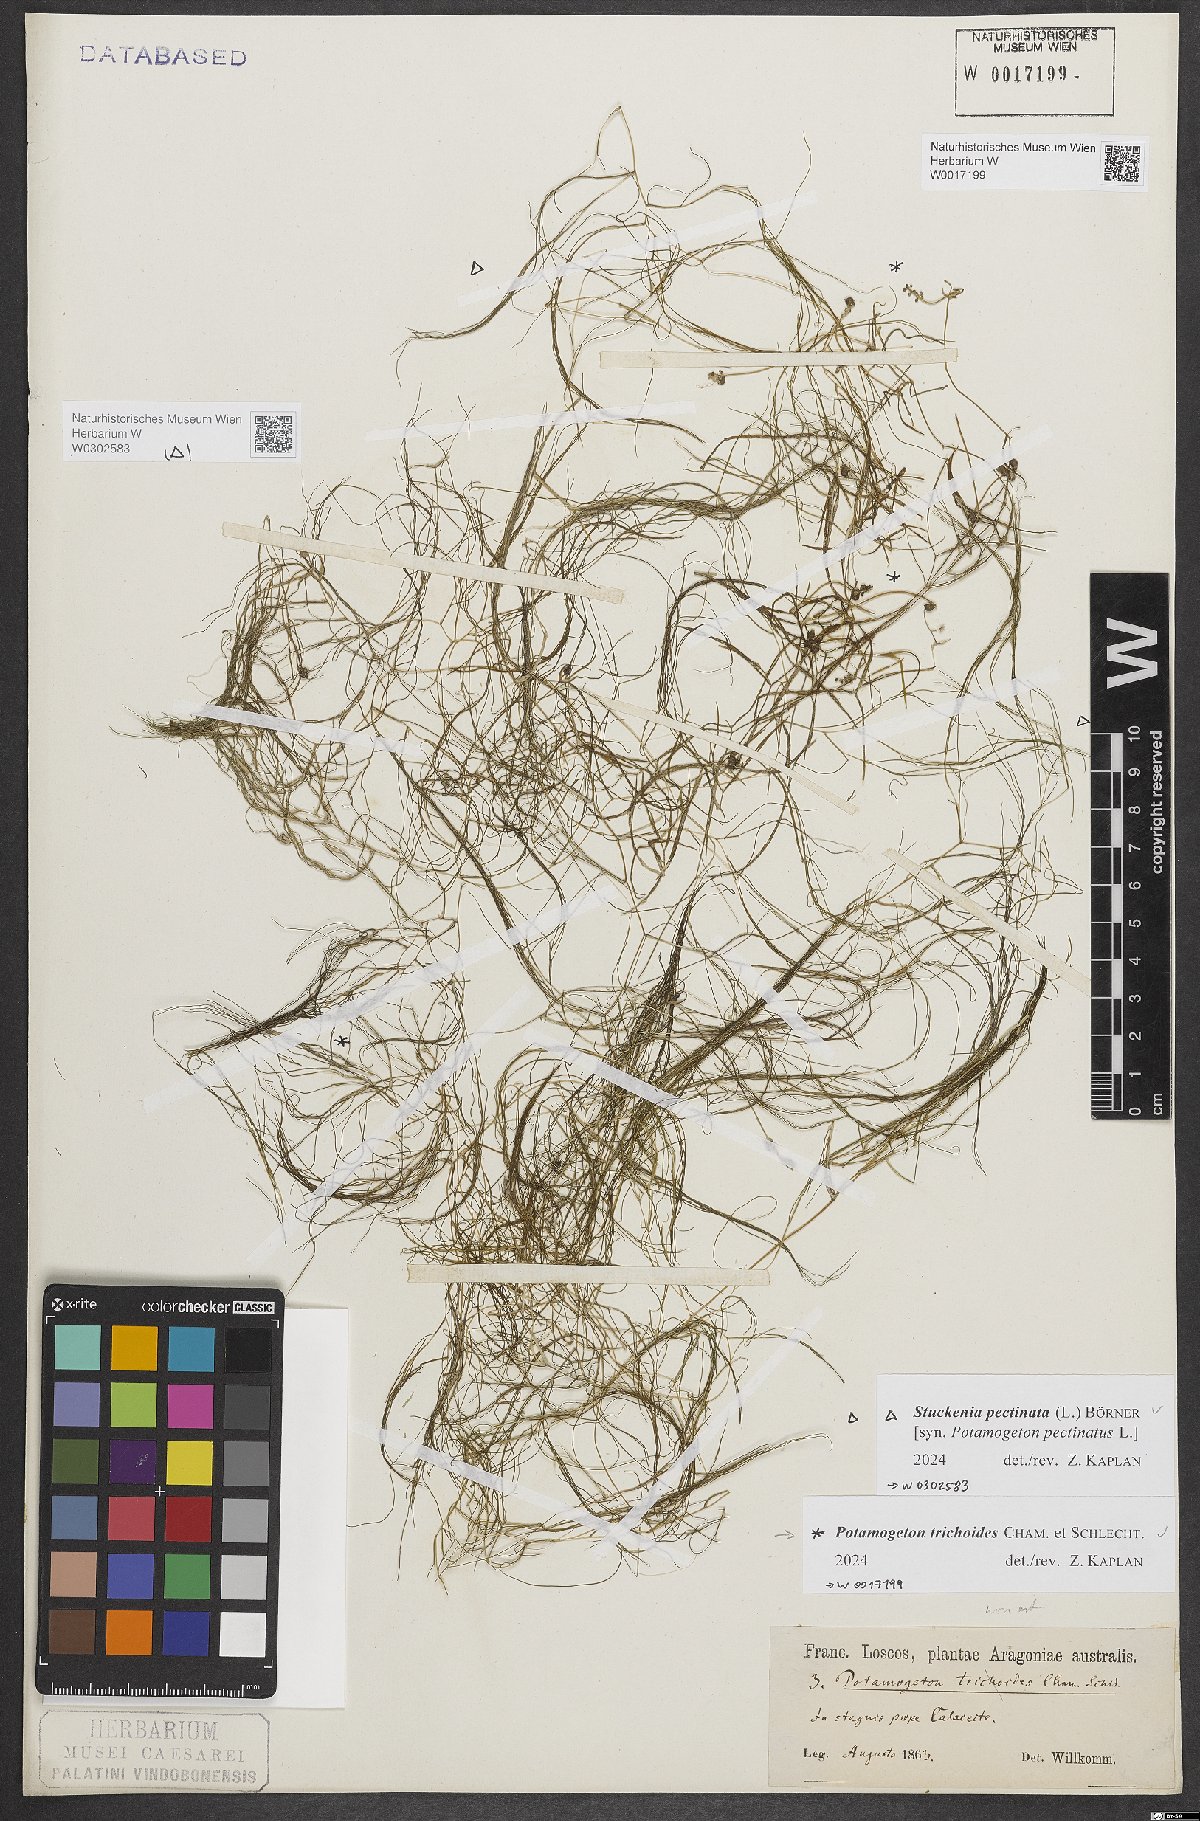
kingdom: Plantae
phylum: Tracheophyta
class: Liliopsida
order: Alismatales
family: Potamogetonaceae
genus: Stuckenia
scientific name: Stuckenia pectinata
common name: Sago pondweed
